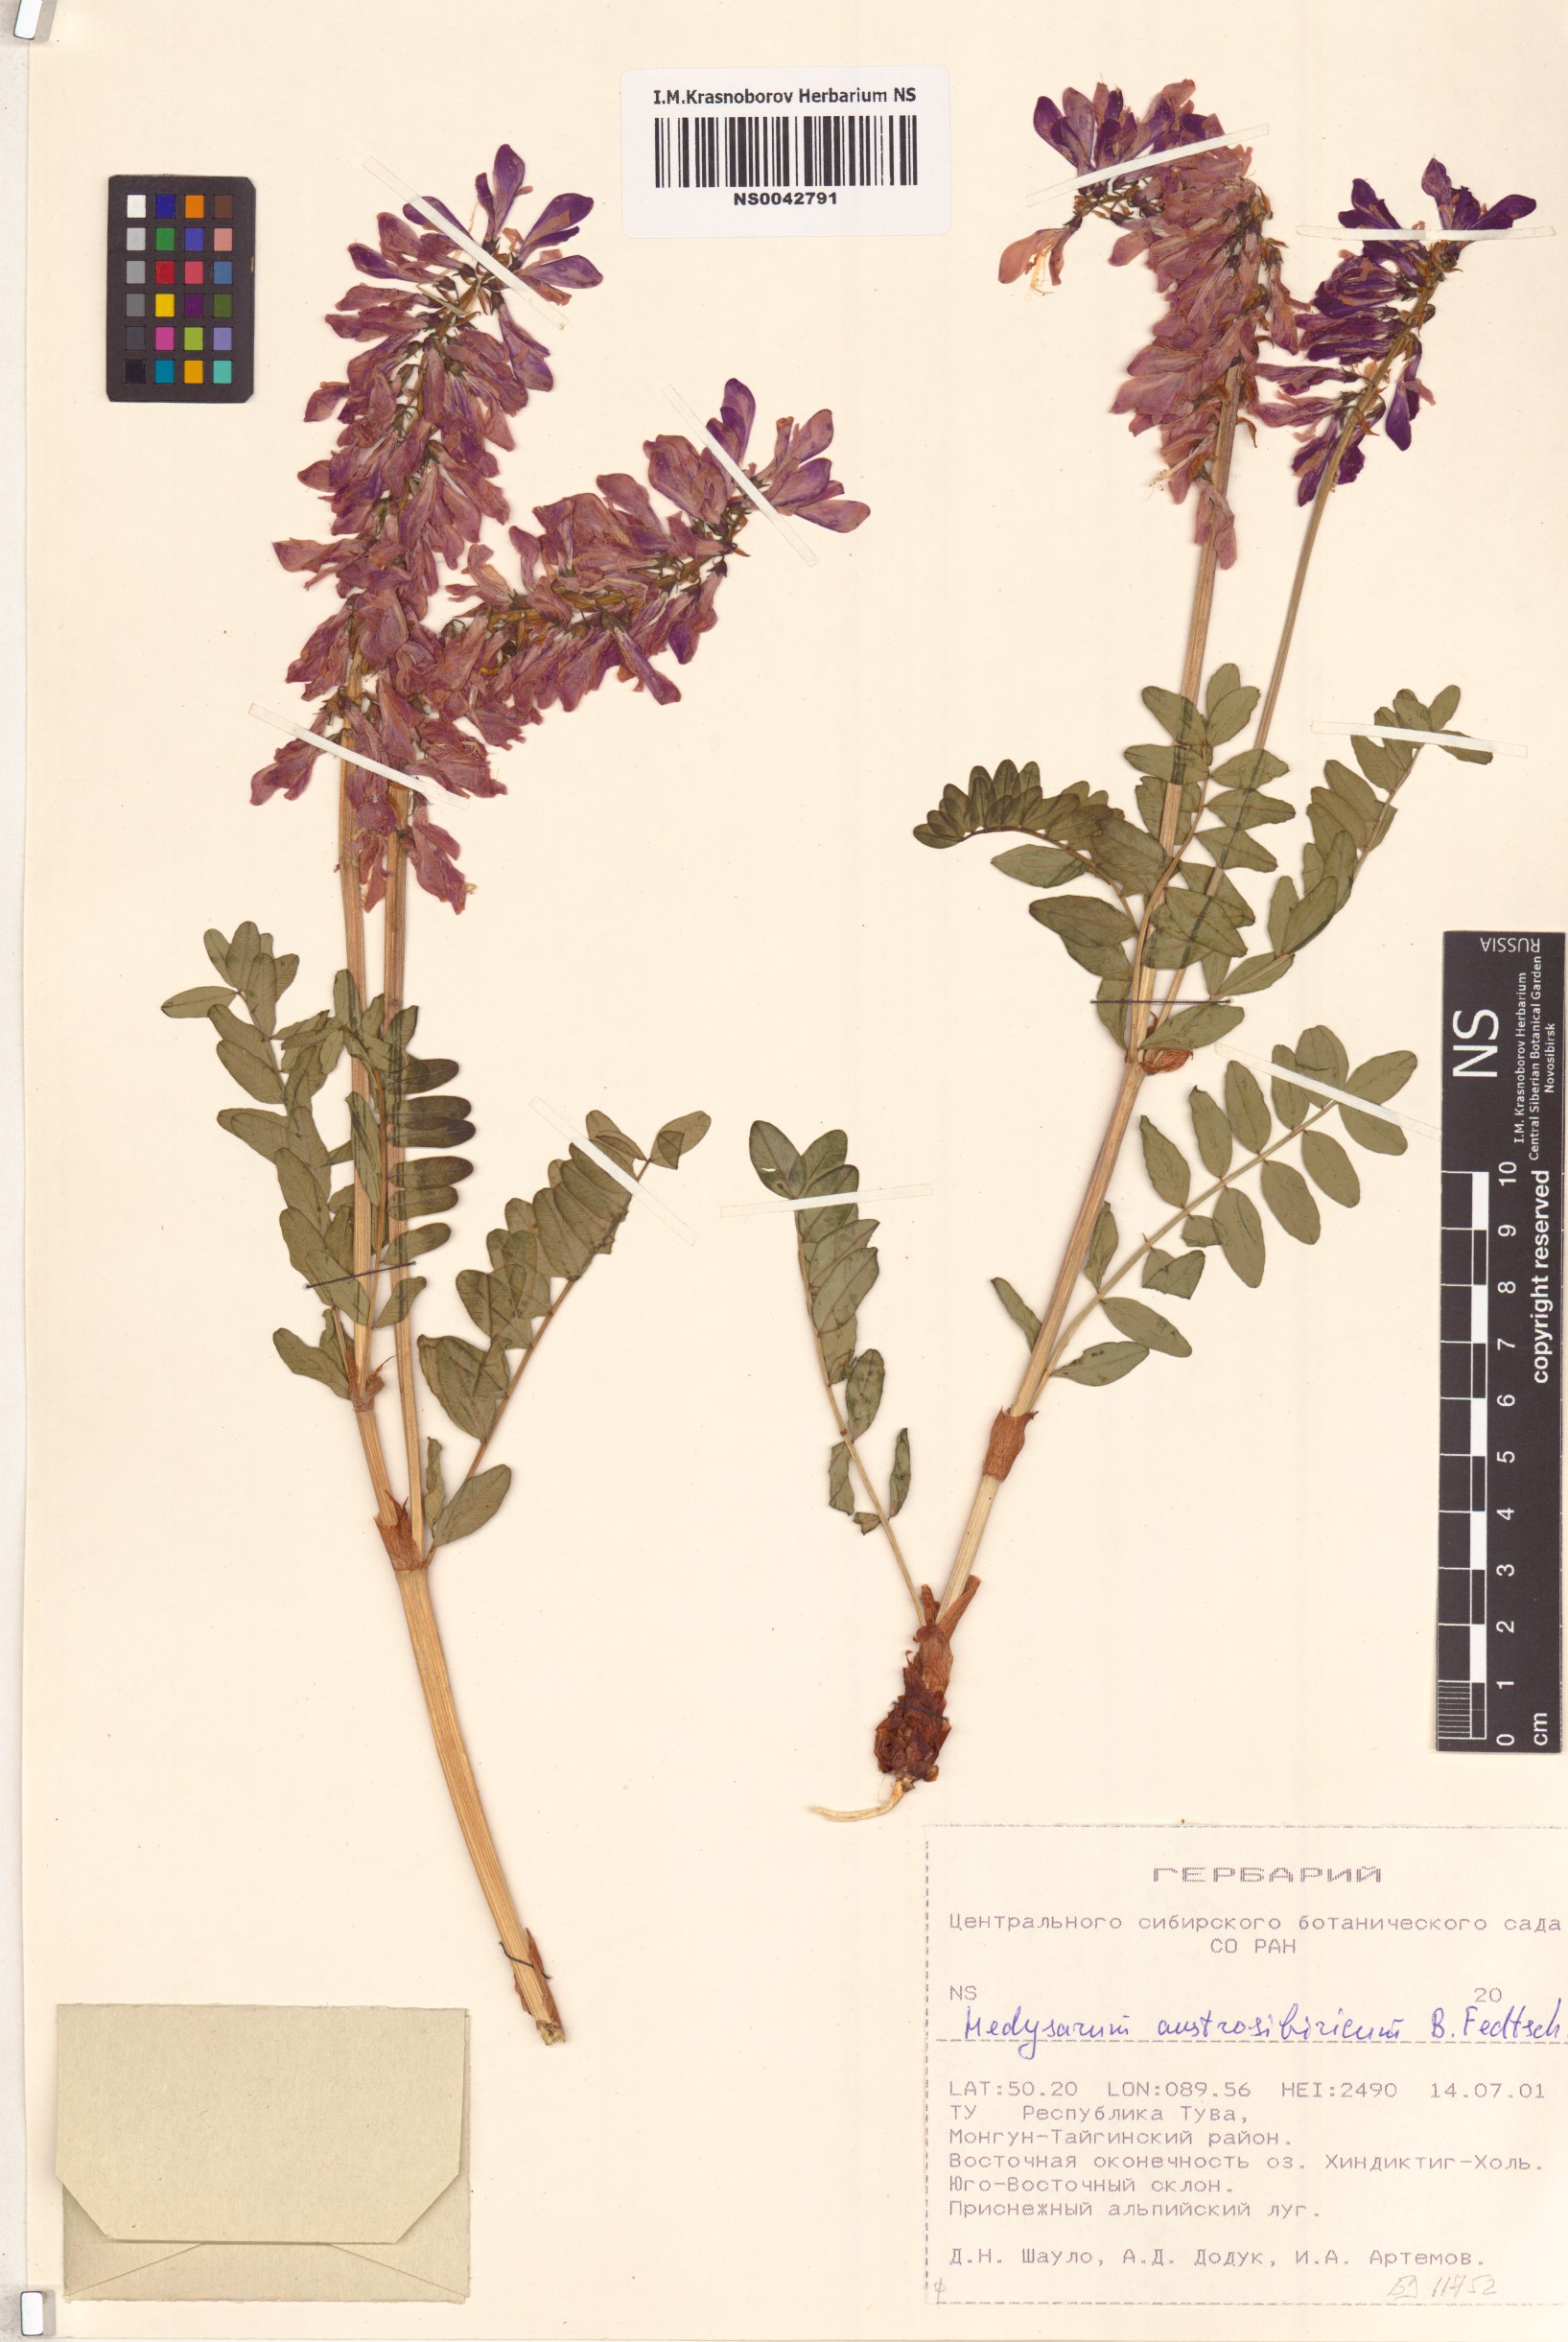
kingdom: Plantae
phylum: Tracheophyta
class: Magnoliopsida
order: Fabales
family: Fabaceae
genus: Hedysarum
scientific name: Hedysarum neglectum
